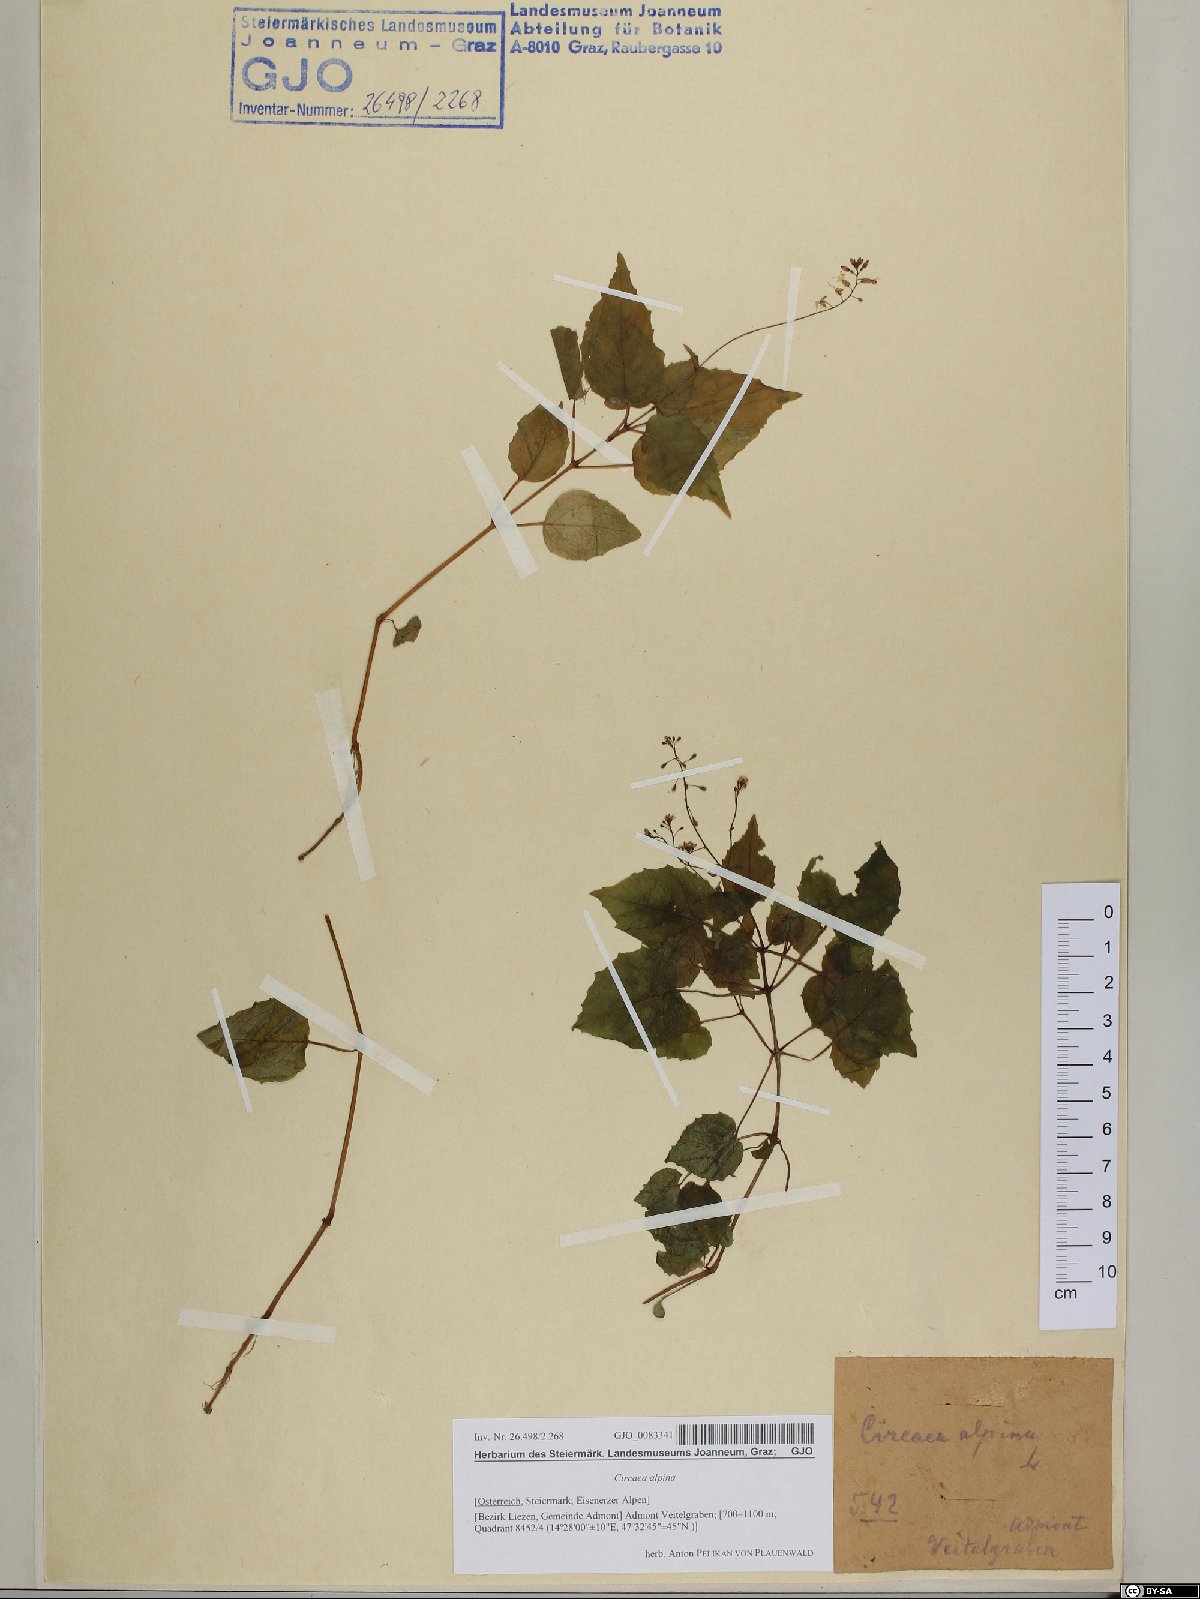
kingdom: Plantae
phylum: Tracheophyta
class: Magnoliopsida
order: Myrtales
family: Onagraceae
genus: Circaea
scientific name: Circaea alpina
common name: Alpine enchanter's-nightshade
